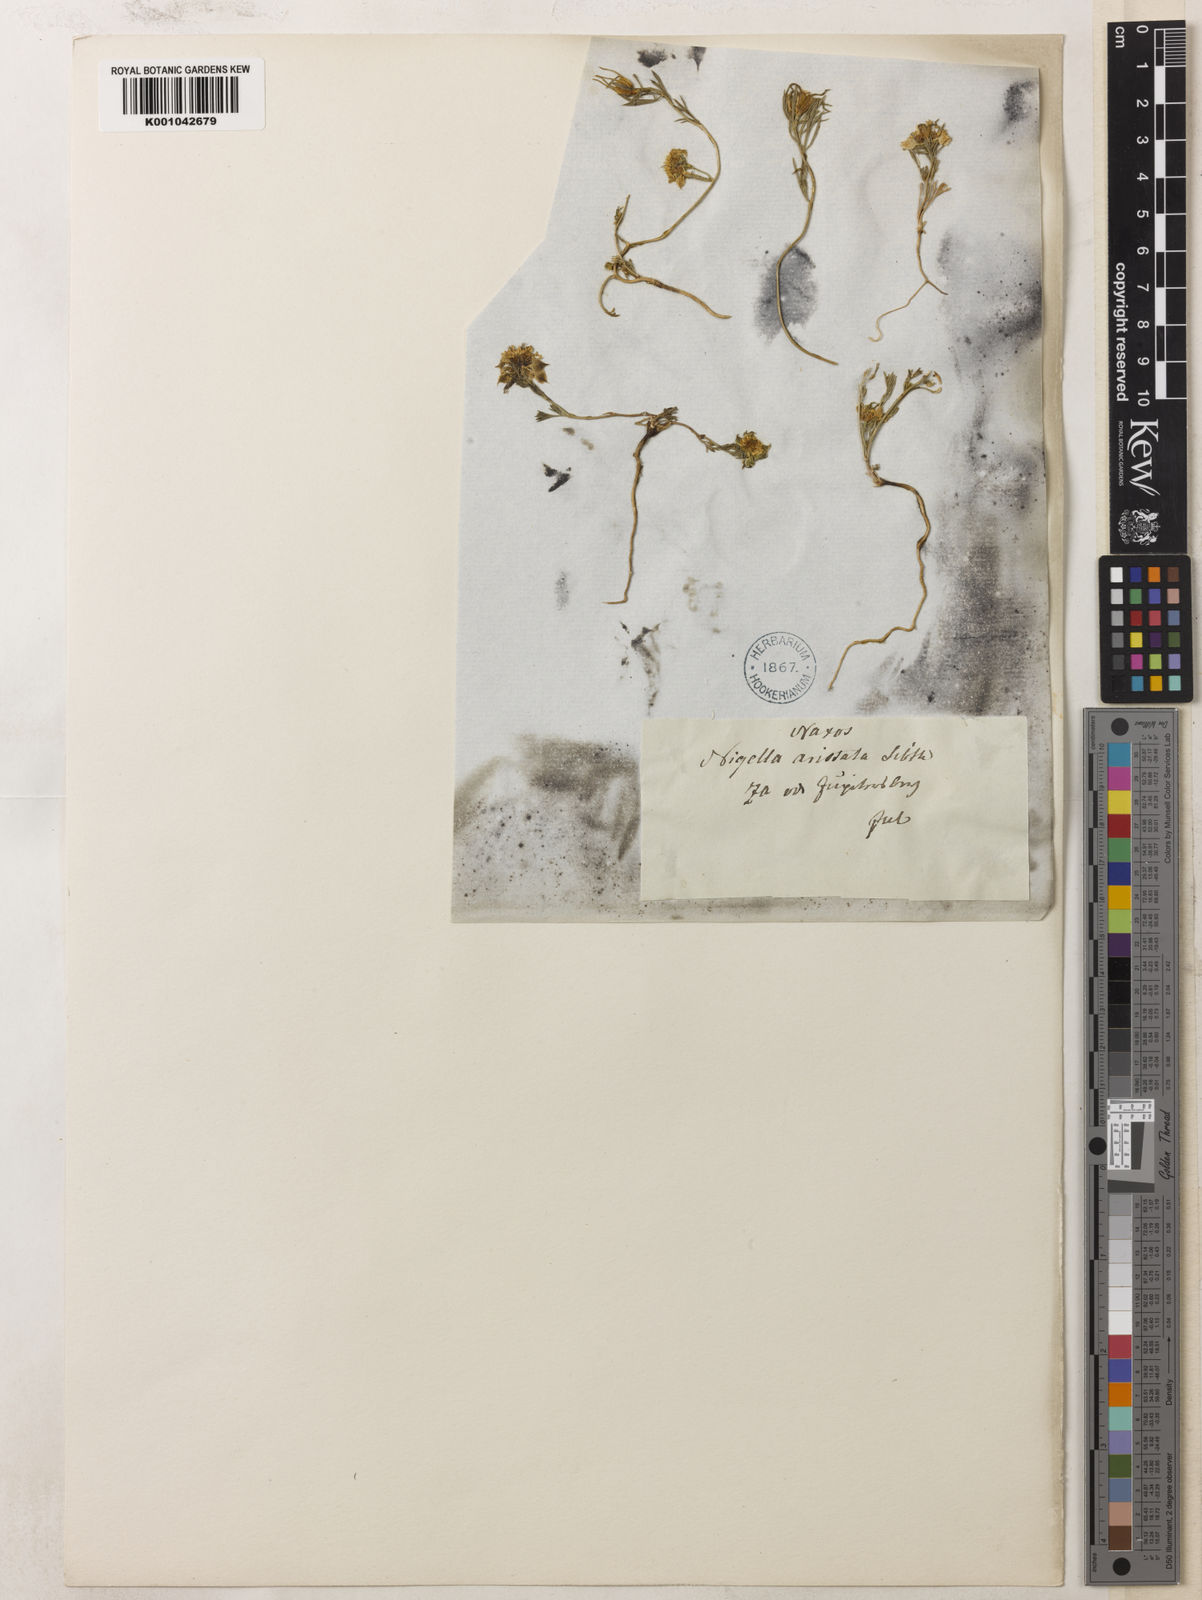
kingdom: Plantae
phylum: Tracheophyta
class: Magnoliopsida
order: Ranunculales
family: Ranunculaceae
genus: Nigella
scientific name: Nigella arvensis
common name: Wild fennel-flower
